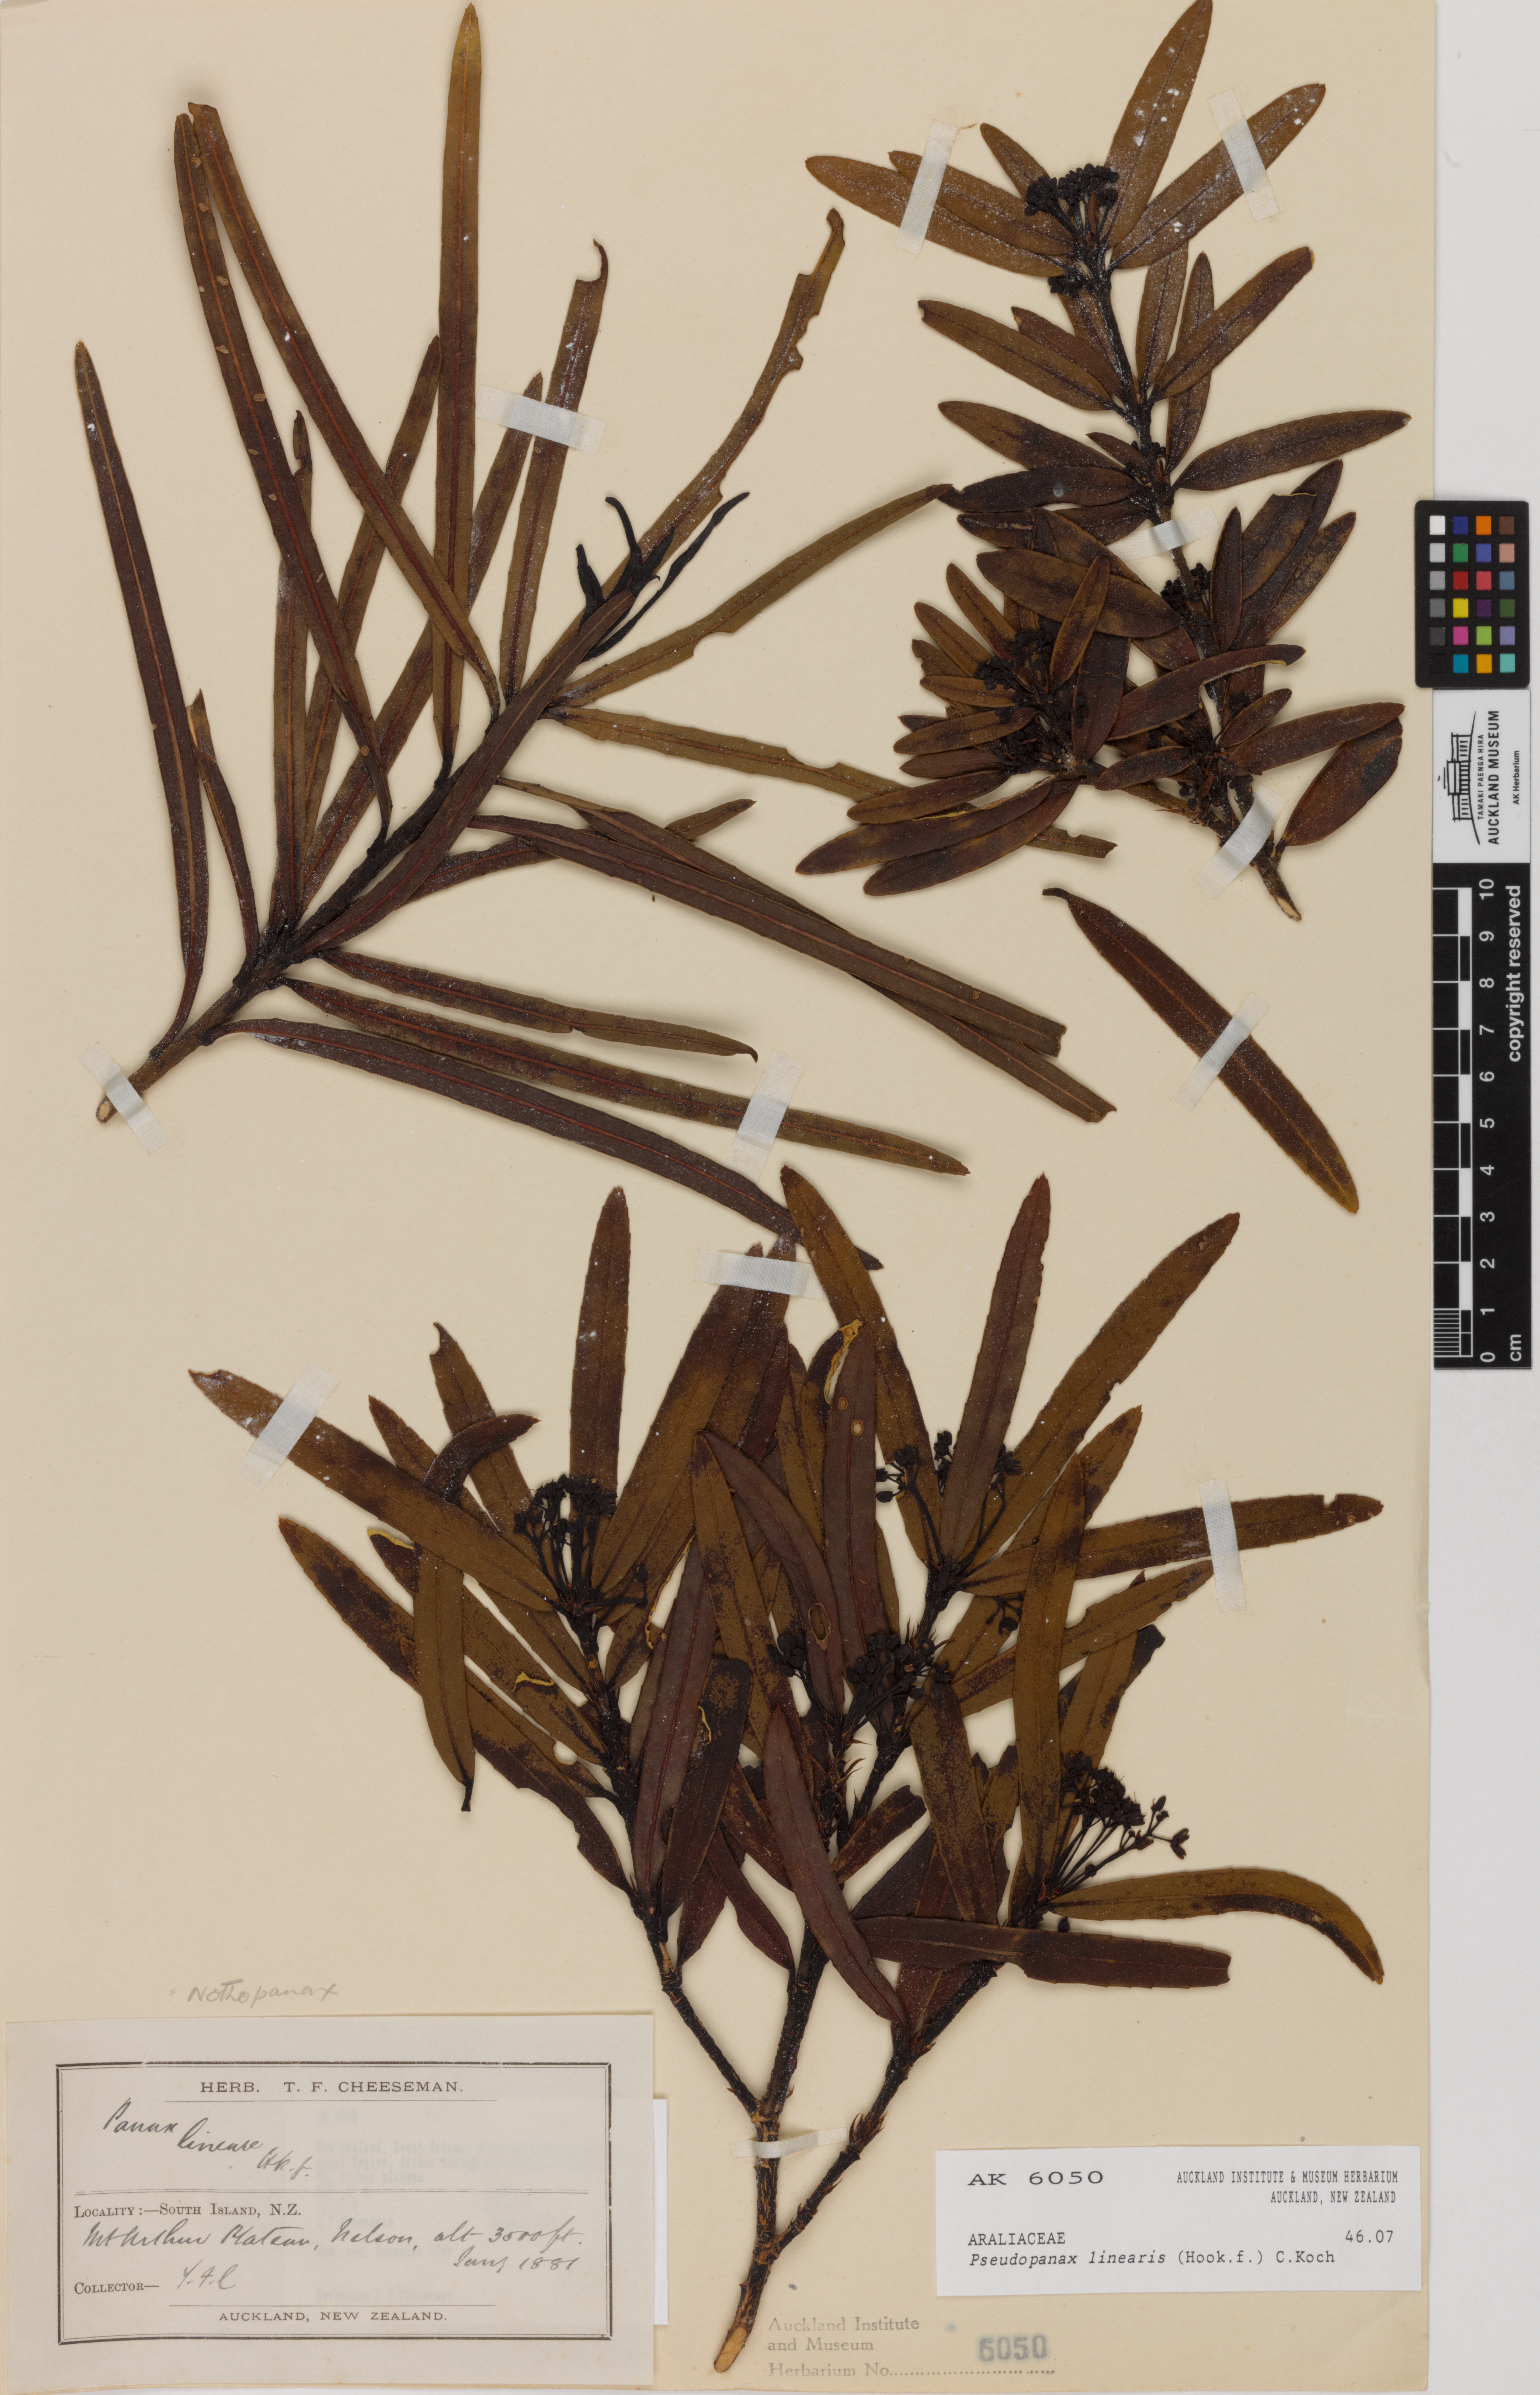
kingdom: Plantae
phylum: Tracheophyta
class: Magnoliopsida
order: Apiales
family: Araliaceae
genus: Pseudopanax
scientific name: Pseudopanax linearis
